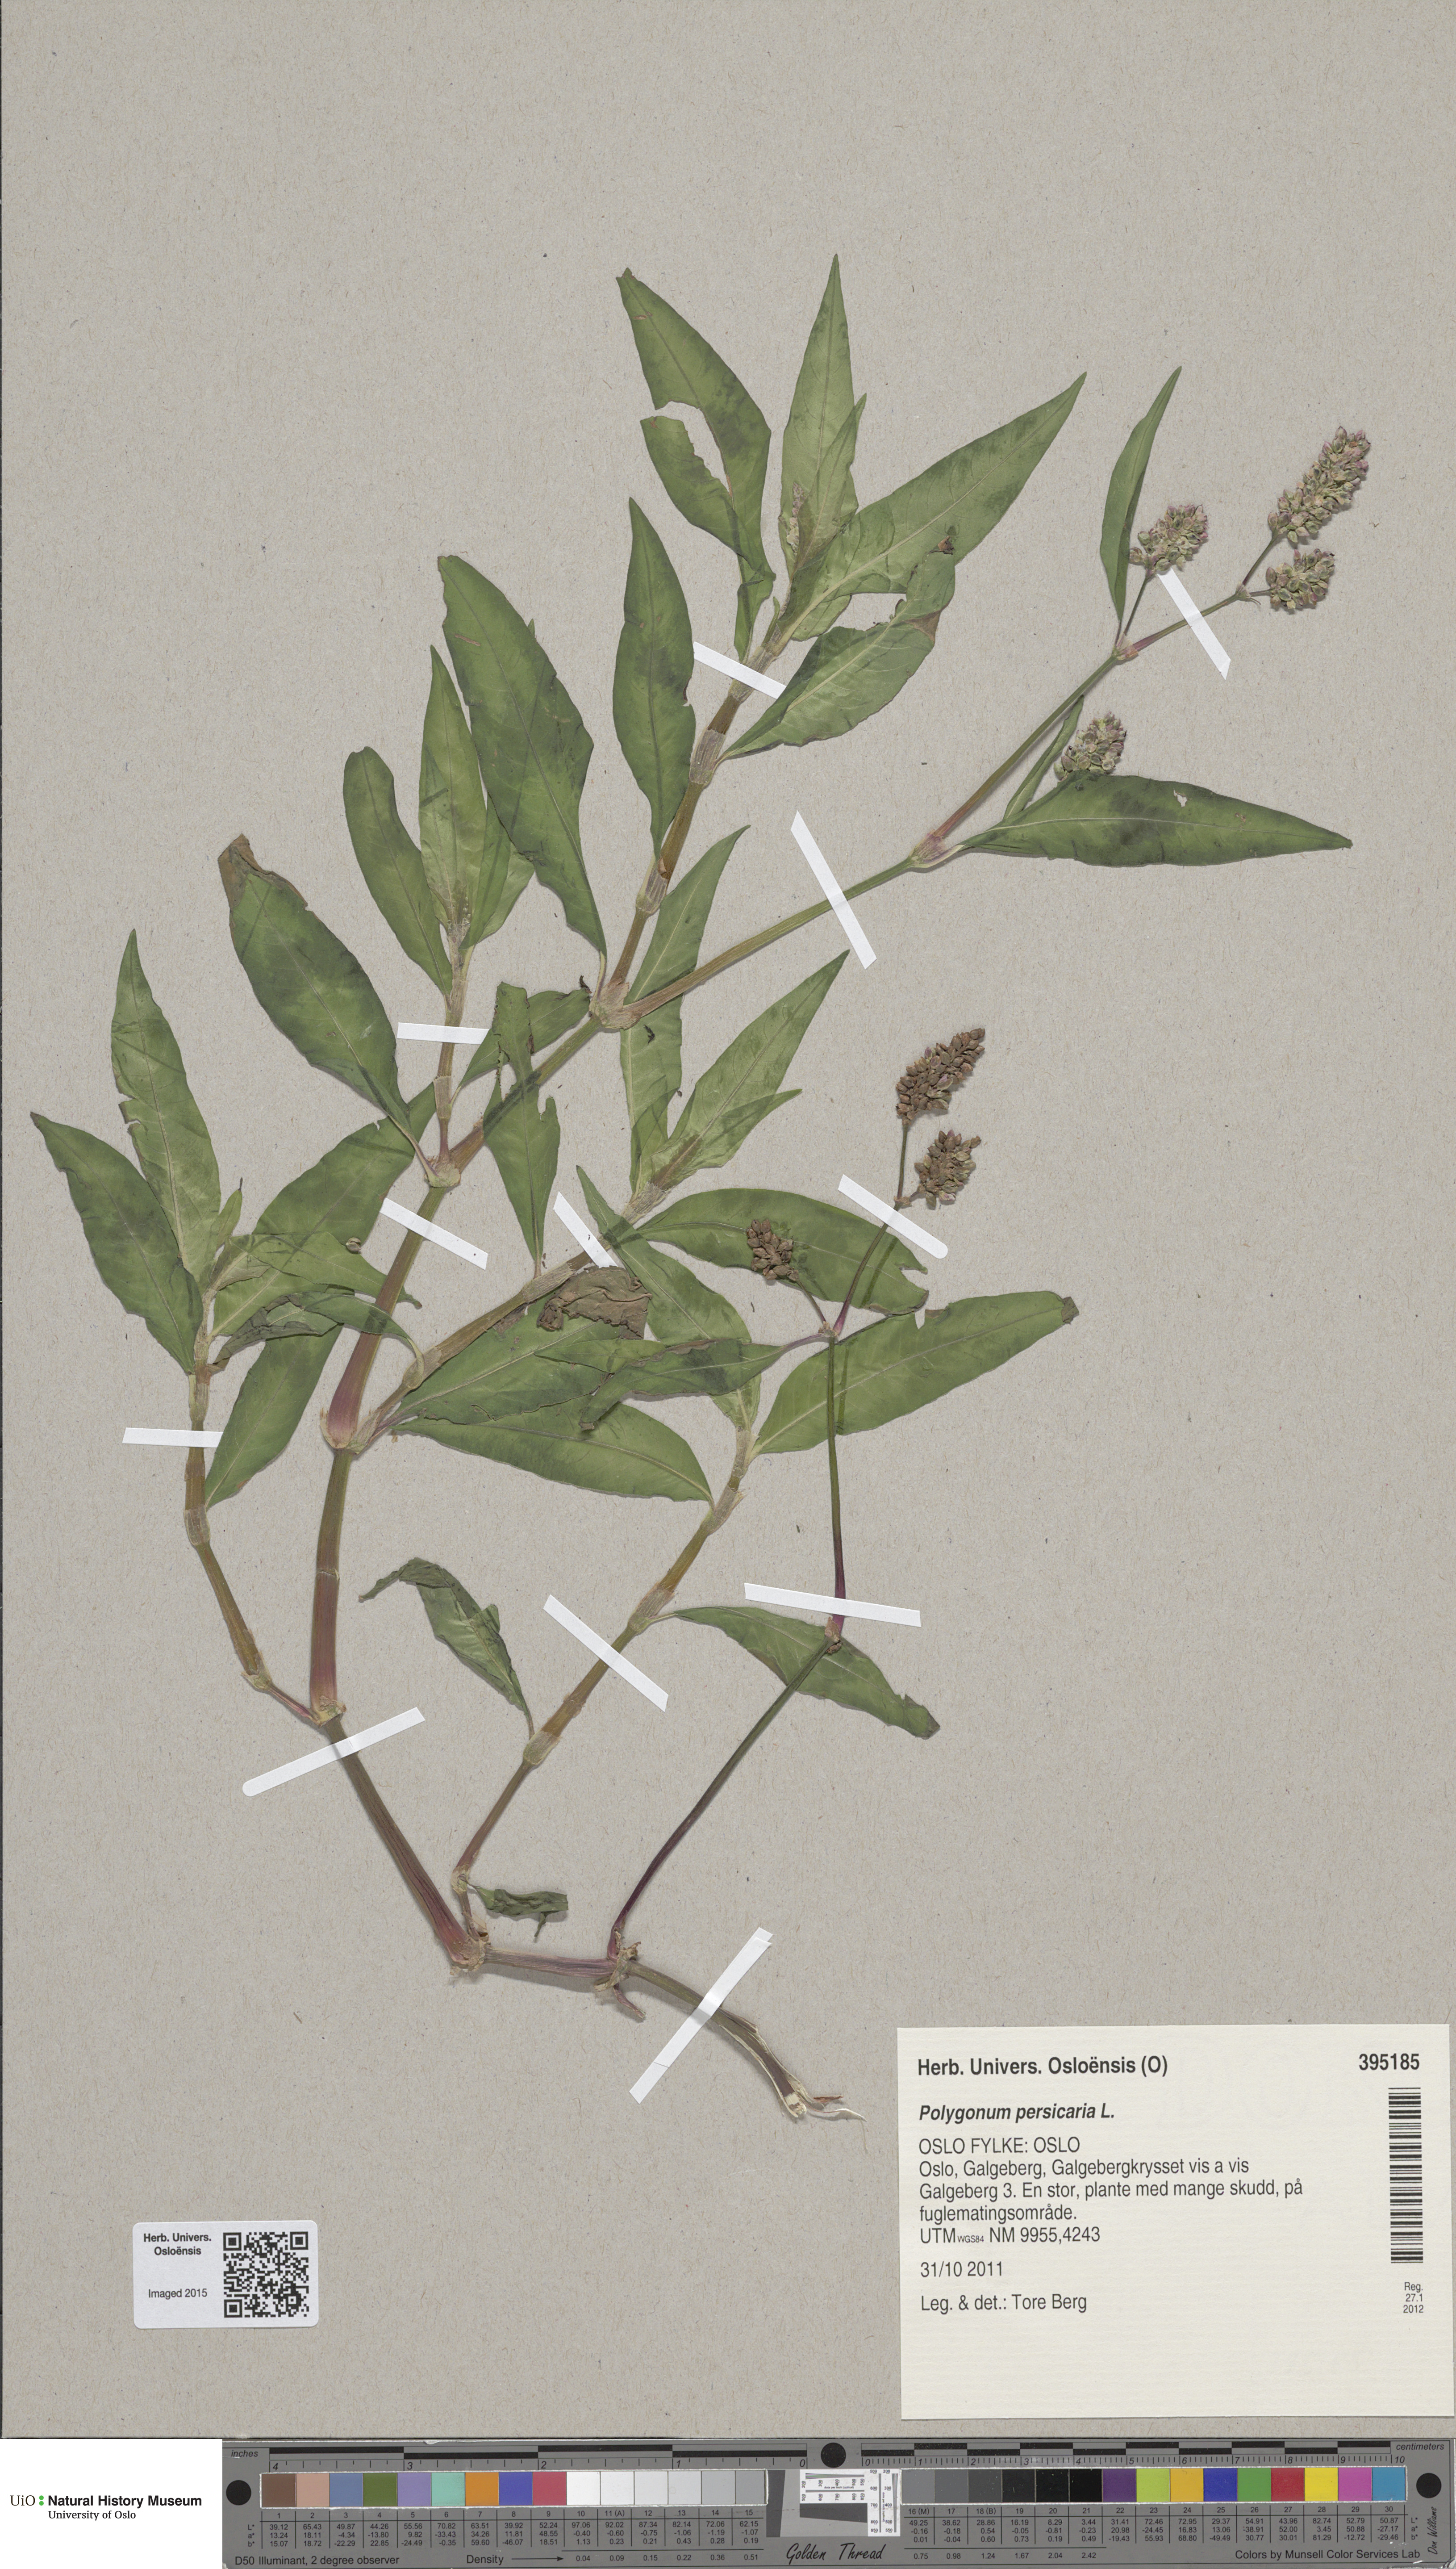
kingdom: Plantae
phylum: Tracheophyta
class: Magnoliopsida
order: Caryophyllales
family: Polygonaceae
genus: Persicaria
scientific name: Persicaria maculosa
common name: Redshank
